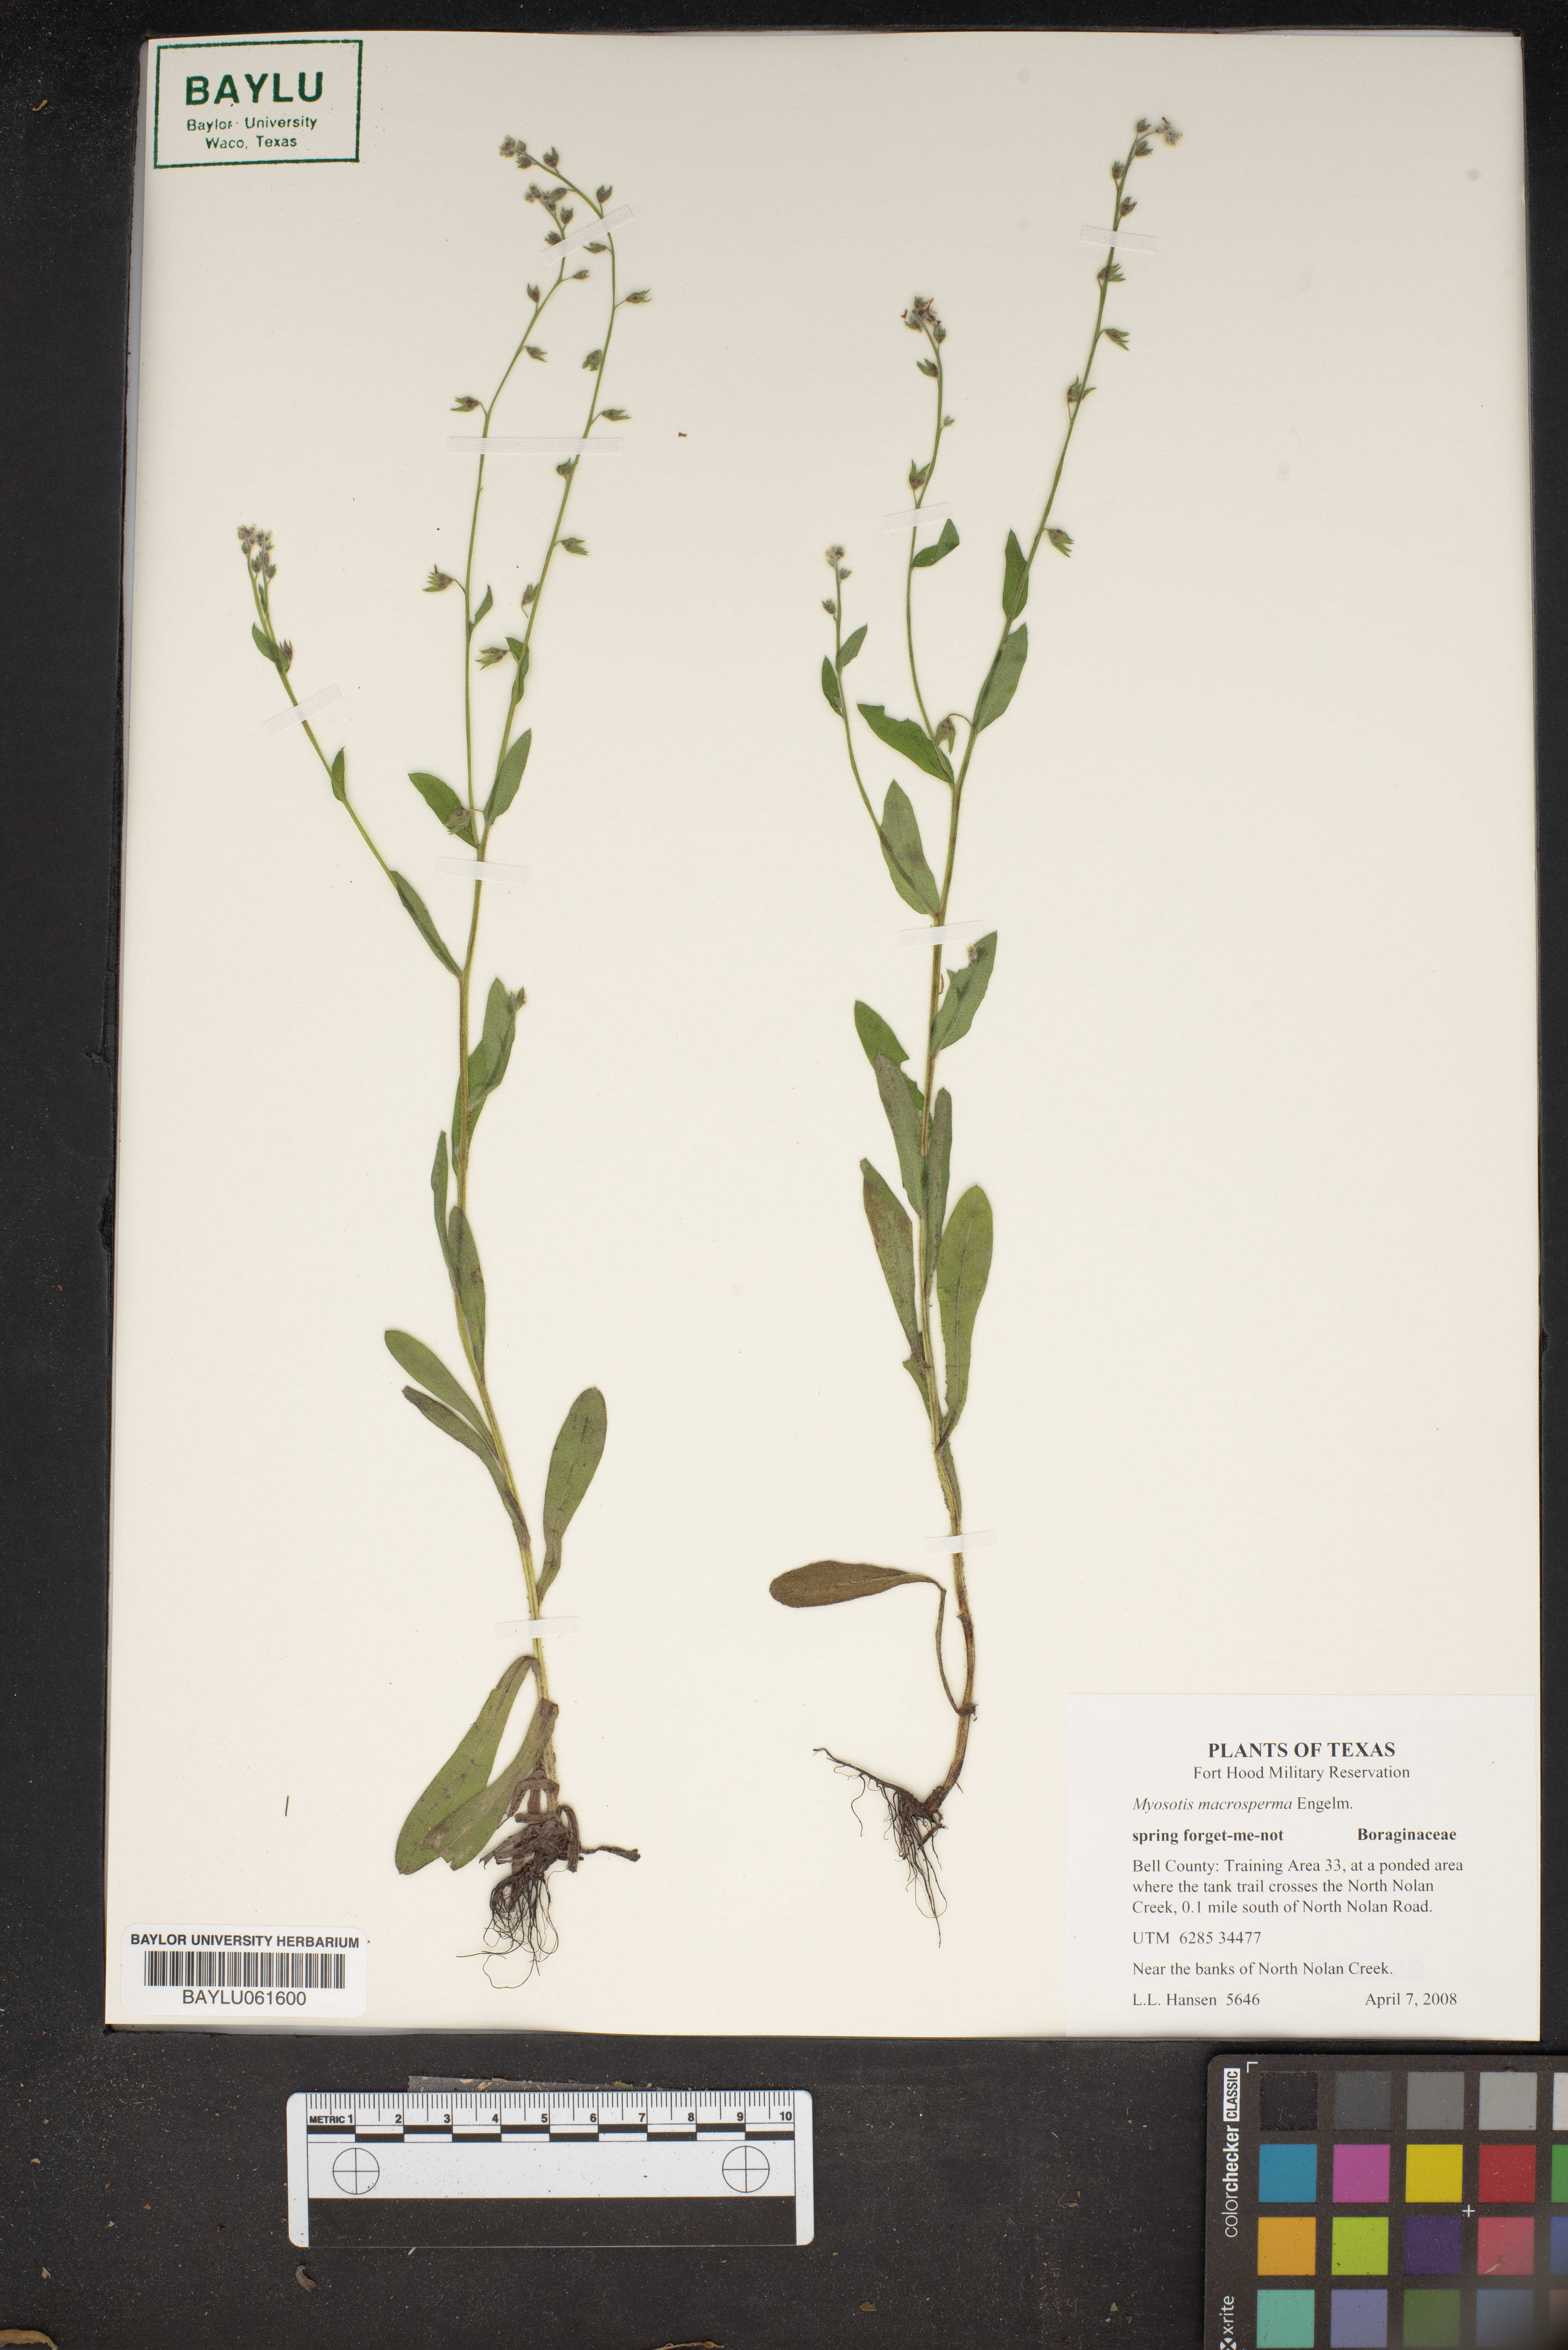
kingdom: Plantae
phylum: Tracheophyta
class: Magnoliopsida
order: Boraginales
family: Boraginaceae
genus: Myosotis
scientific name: Myosotis macrosperma
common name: Large-seed forget-me-not
